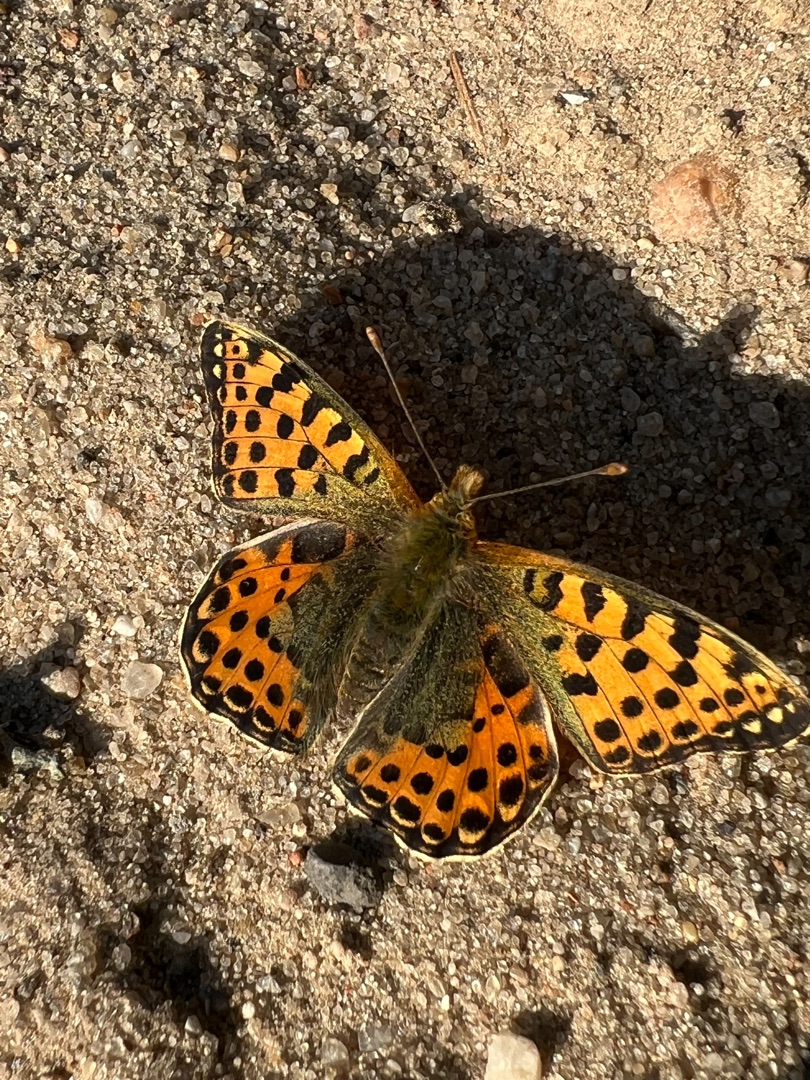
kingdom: Animalia
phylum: Arthropoda
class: Insecta
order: Lepidoptera
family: Nymphalidae
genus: Issoria
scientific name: Issoria lathonia
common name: Storplettet perlemorsommerfugl
